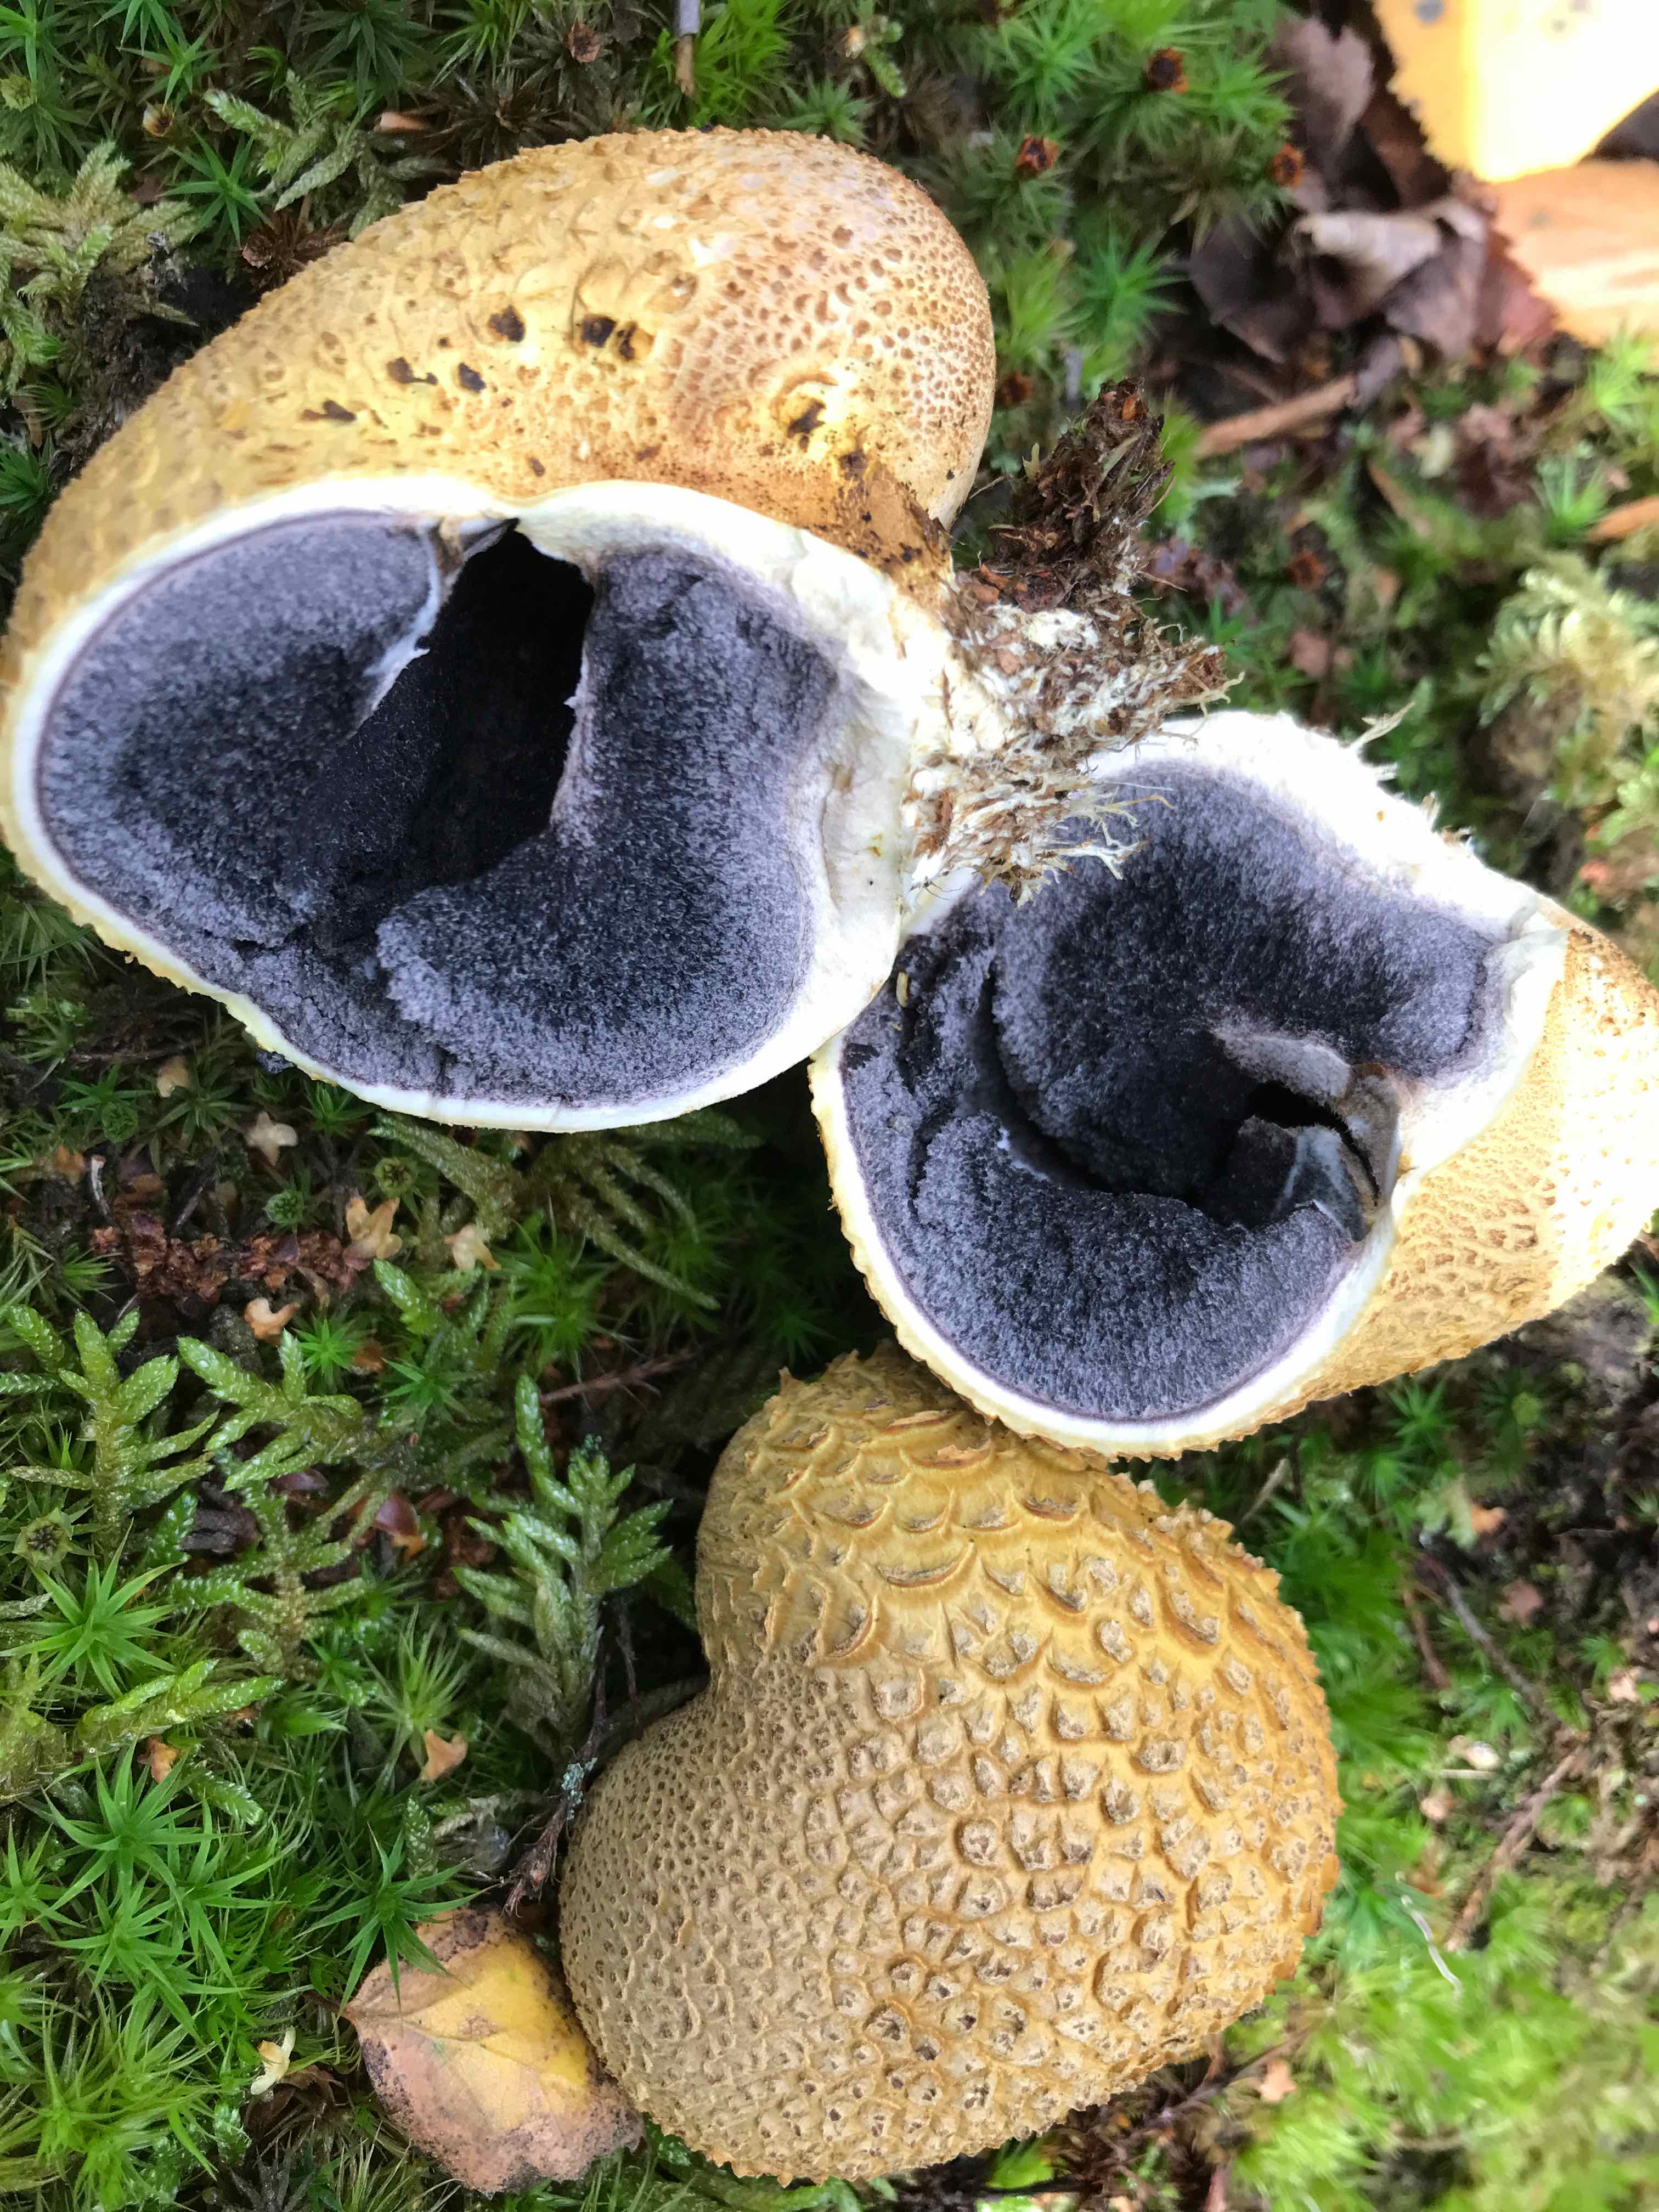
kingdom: Fungi
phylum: Basidiomycota
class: Agaricomycetes
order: Boletales
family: Sclerodermataceae
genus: Scleroderma
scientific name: Scleroderma citrinum
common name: almindelig bruskbold
